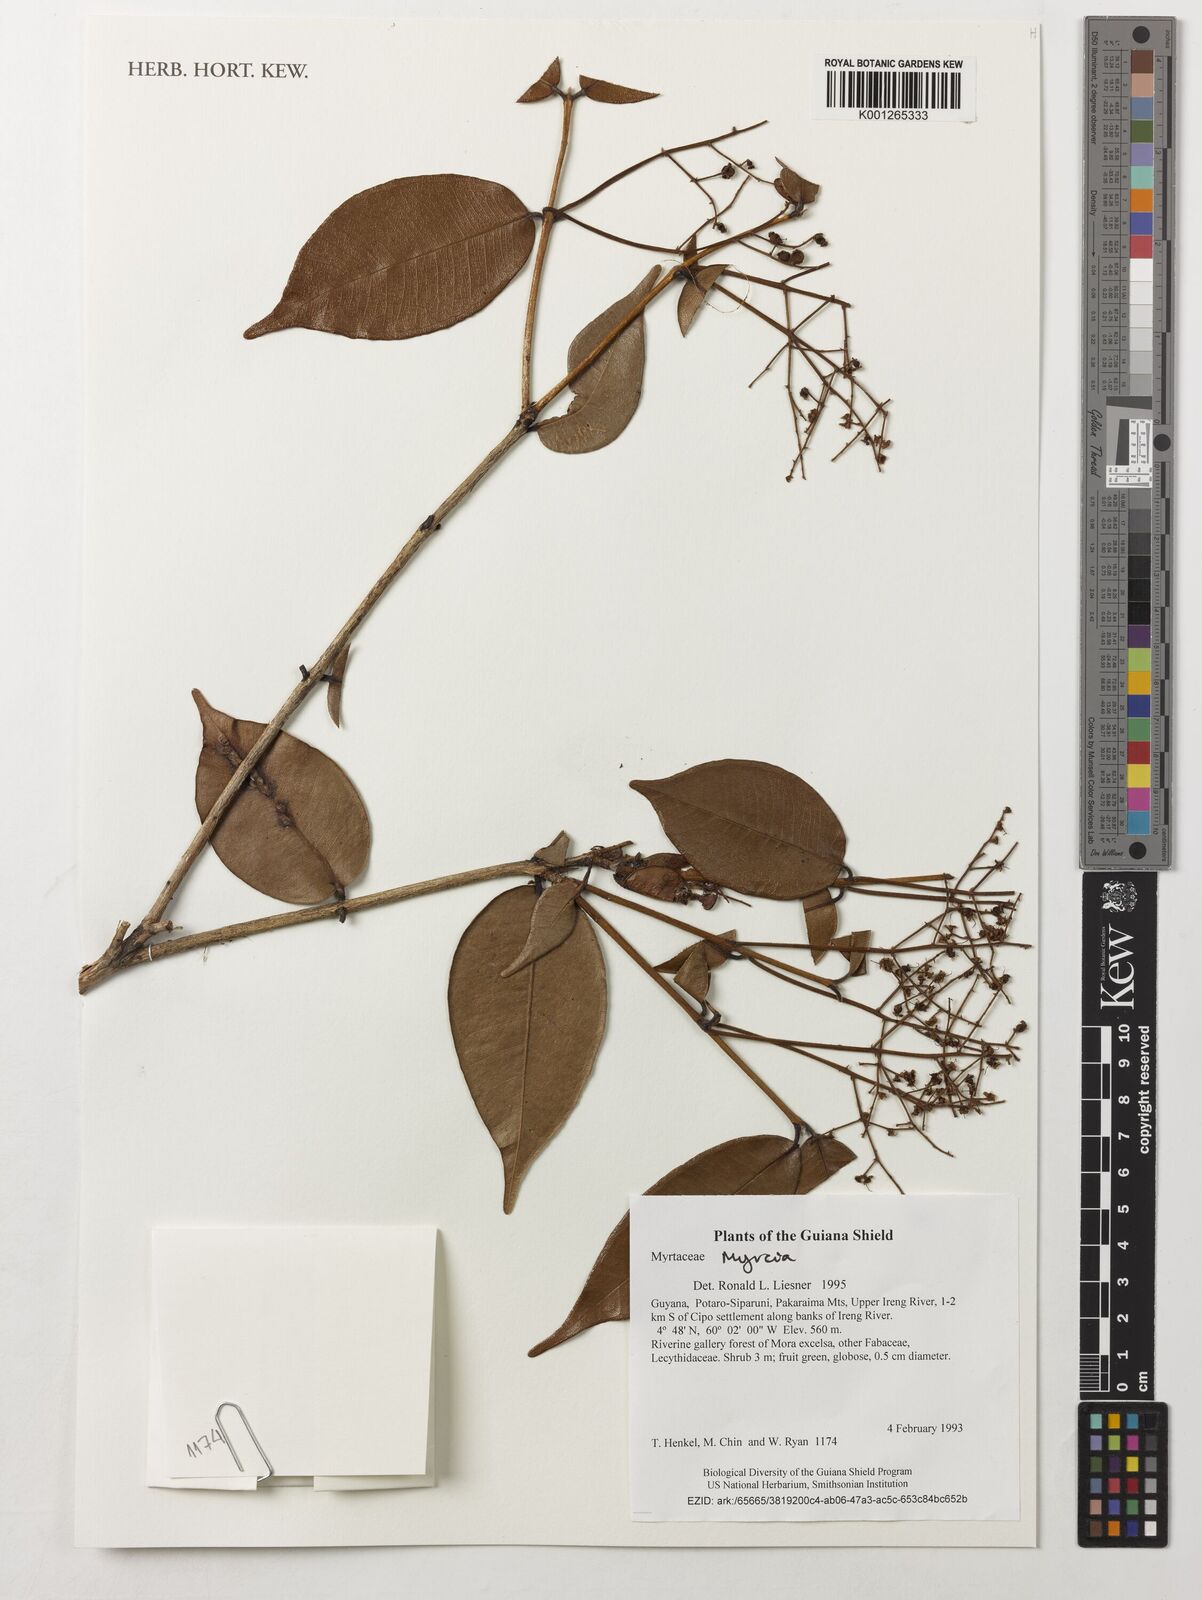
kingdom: Plantae
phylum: Tracheophyta
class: Magnoliopsida
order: Myrtales
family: Myrtaceae
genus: Myrcia
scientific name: Myrcia
